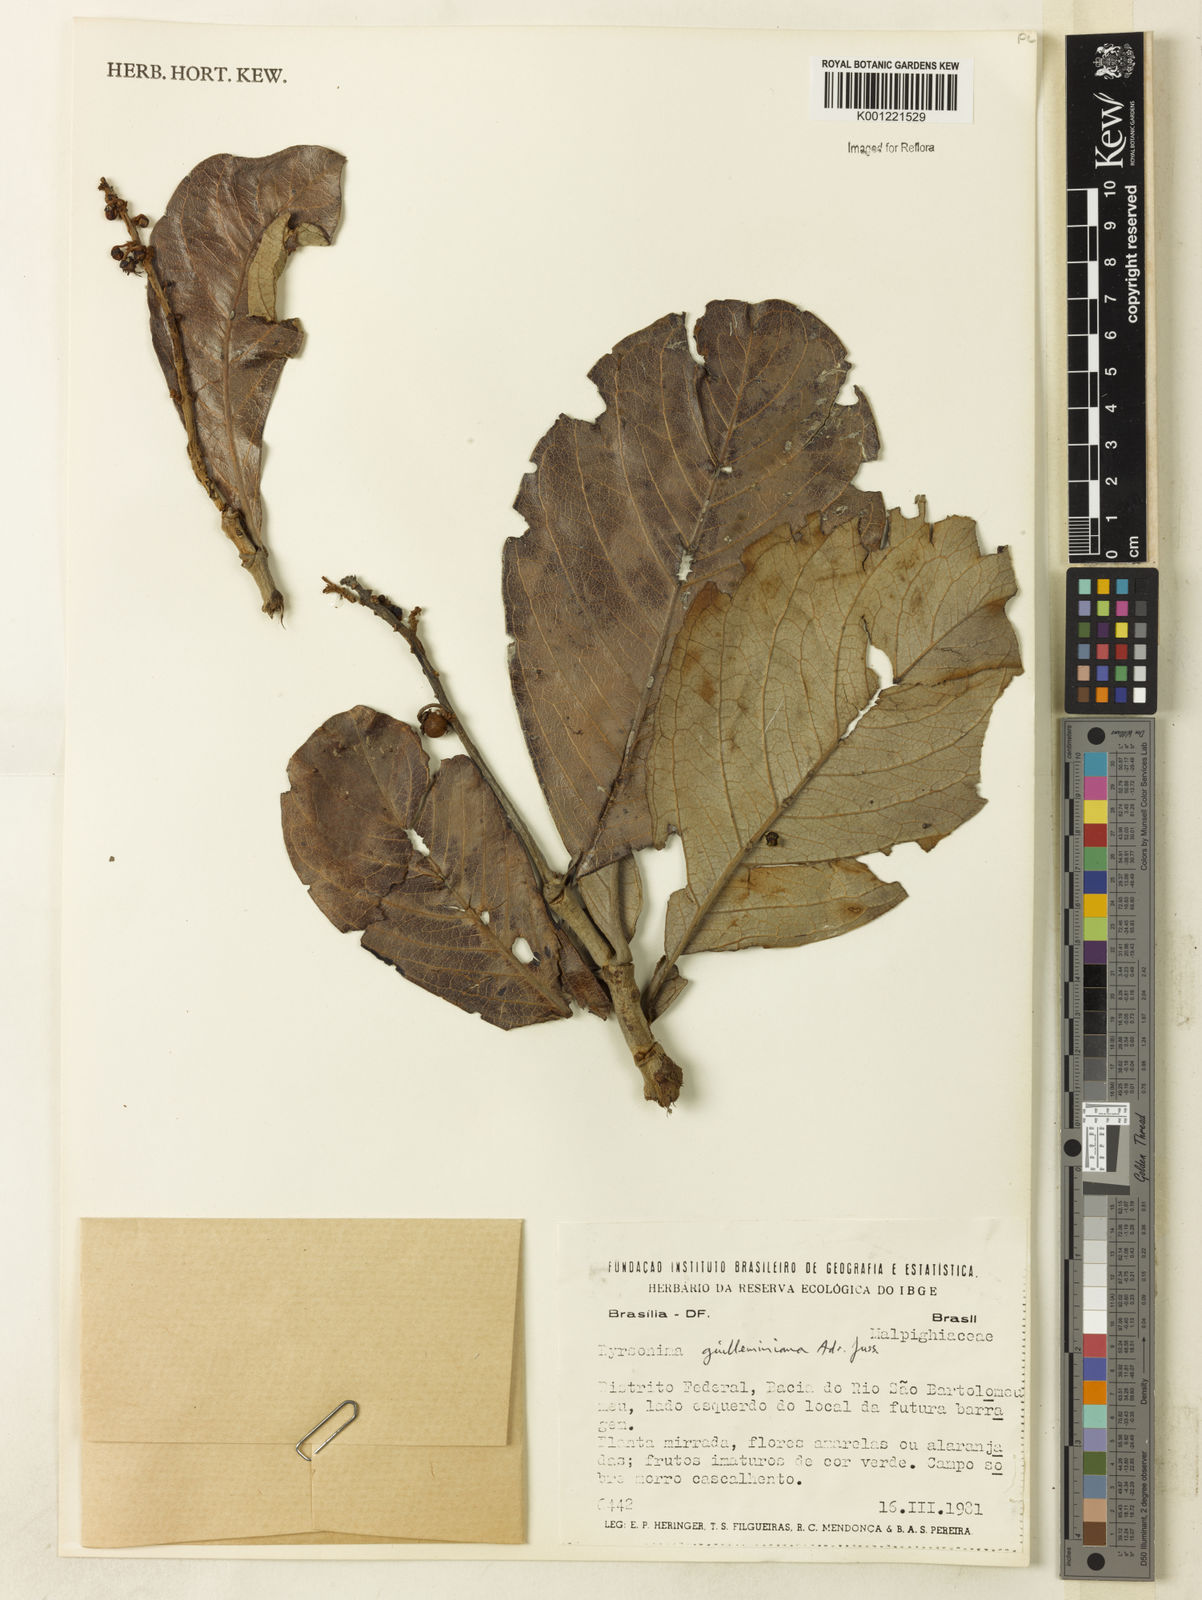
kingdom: Plantae
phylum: Tracheophyta
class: Magnoliopsida
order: Malpighiales
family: Malpighiaceae
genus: Byrsonima
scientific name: Byrsonima guilleminiana
